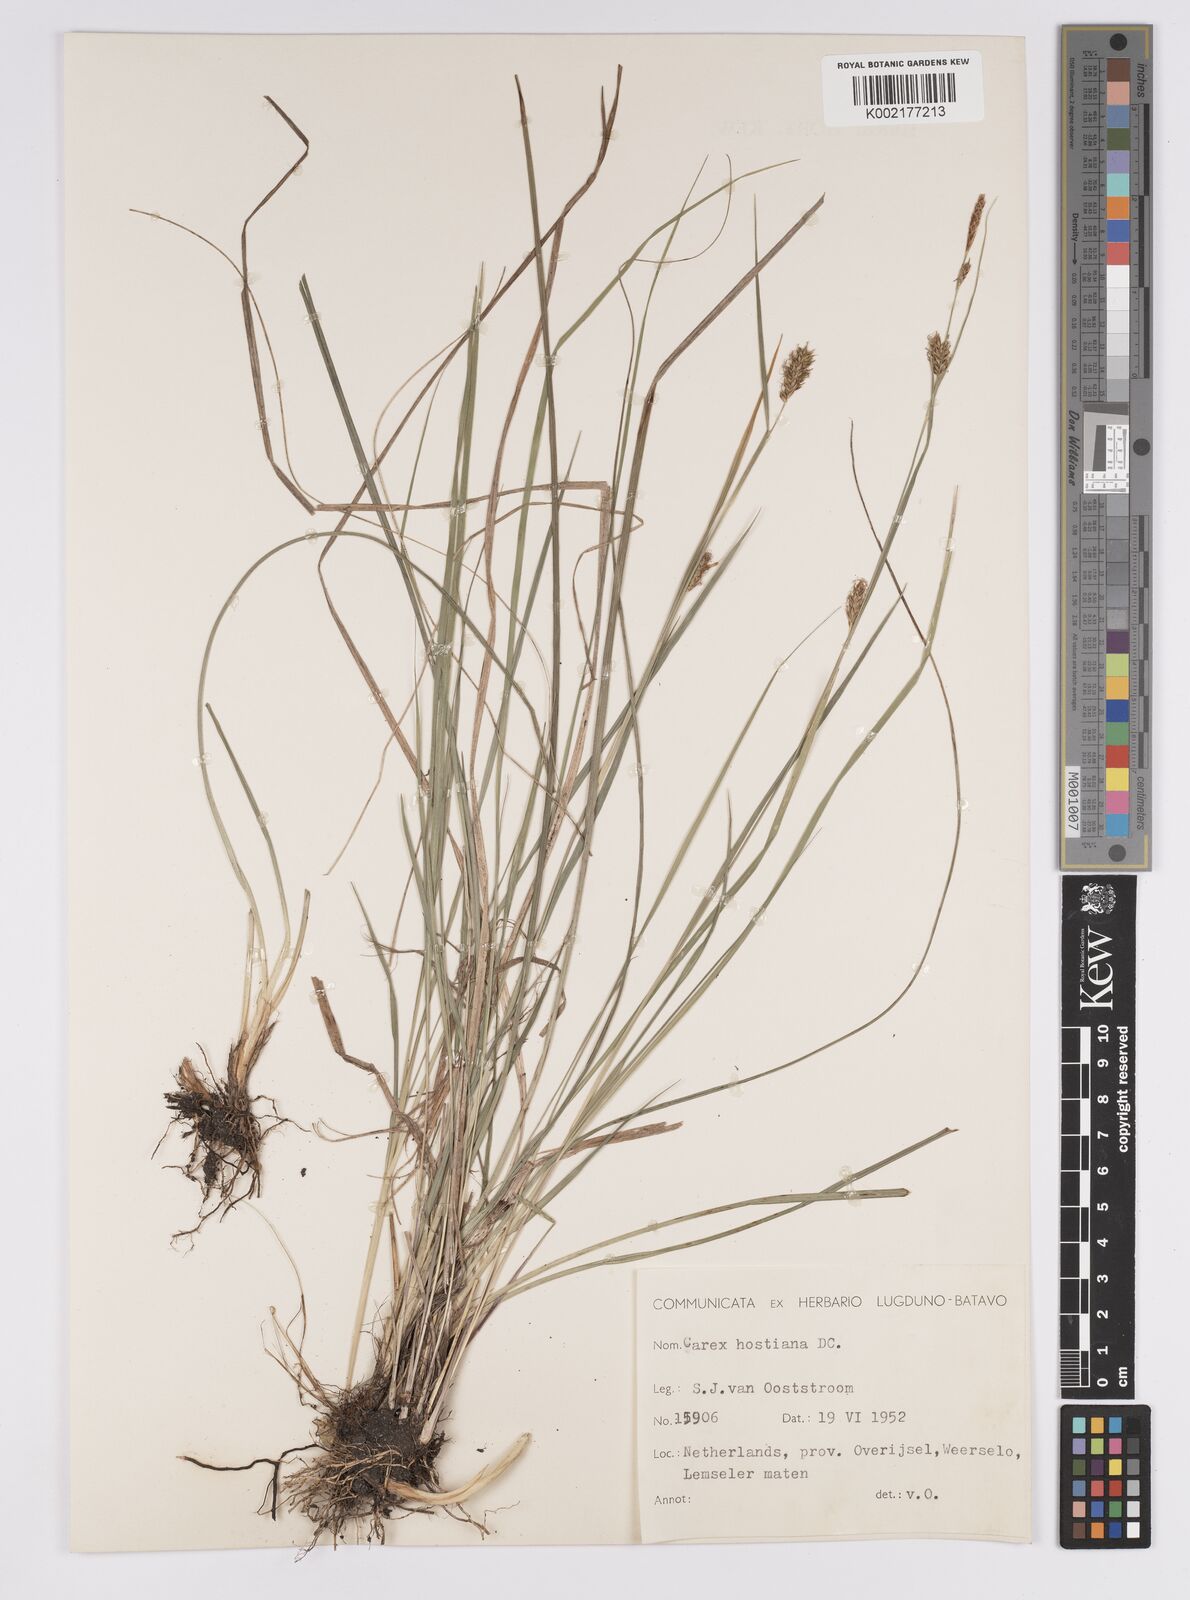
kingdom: Plantae
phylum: Tracheophyta
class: Liliopsida
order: Poales
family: Cyperaceae
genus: Carex
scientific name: Carex hostiana
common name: Tawny sedge
